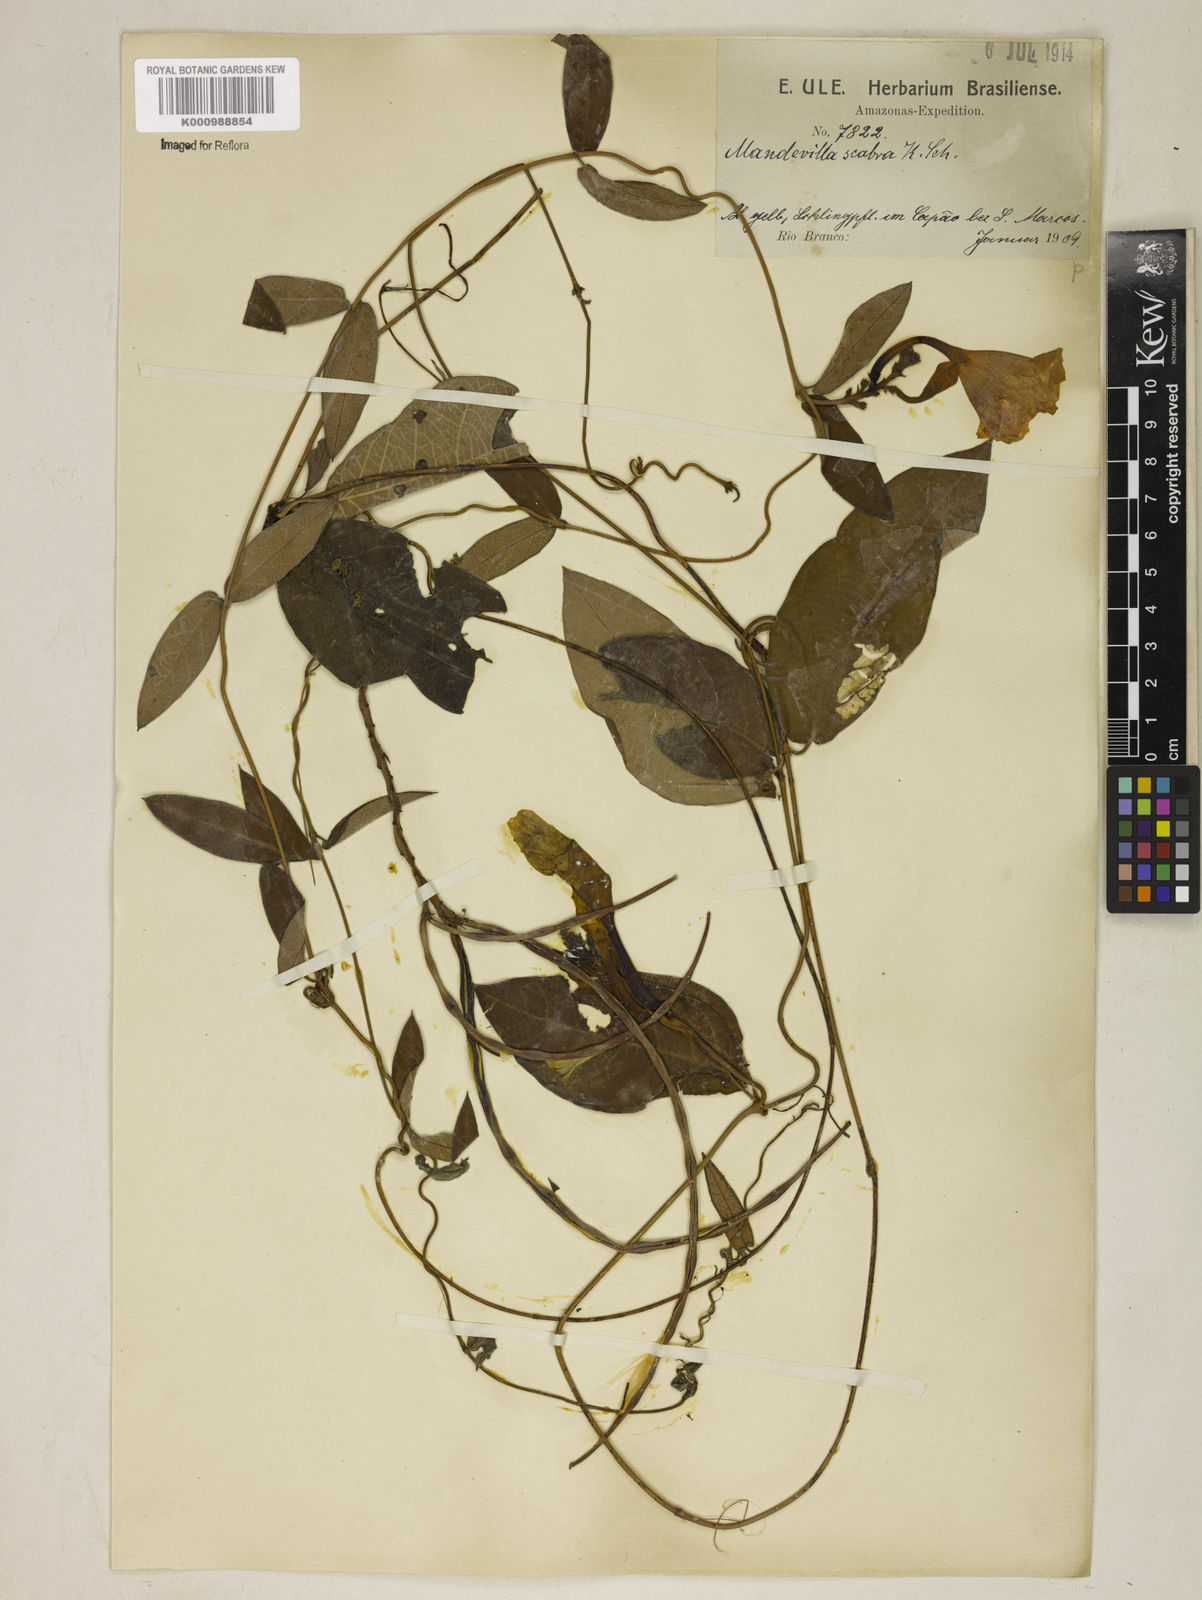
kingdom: Plantae
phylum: Tracheophyta
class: Magnoliopsida
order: Gentianales
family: Apocynaceae
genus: Mandevilla
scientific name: Mandevilla scabra
